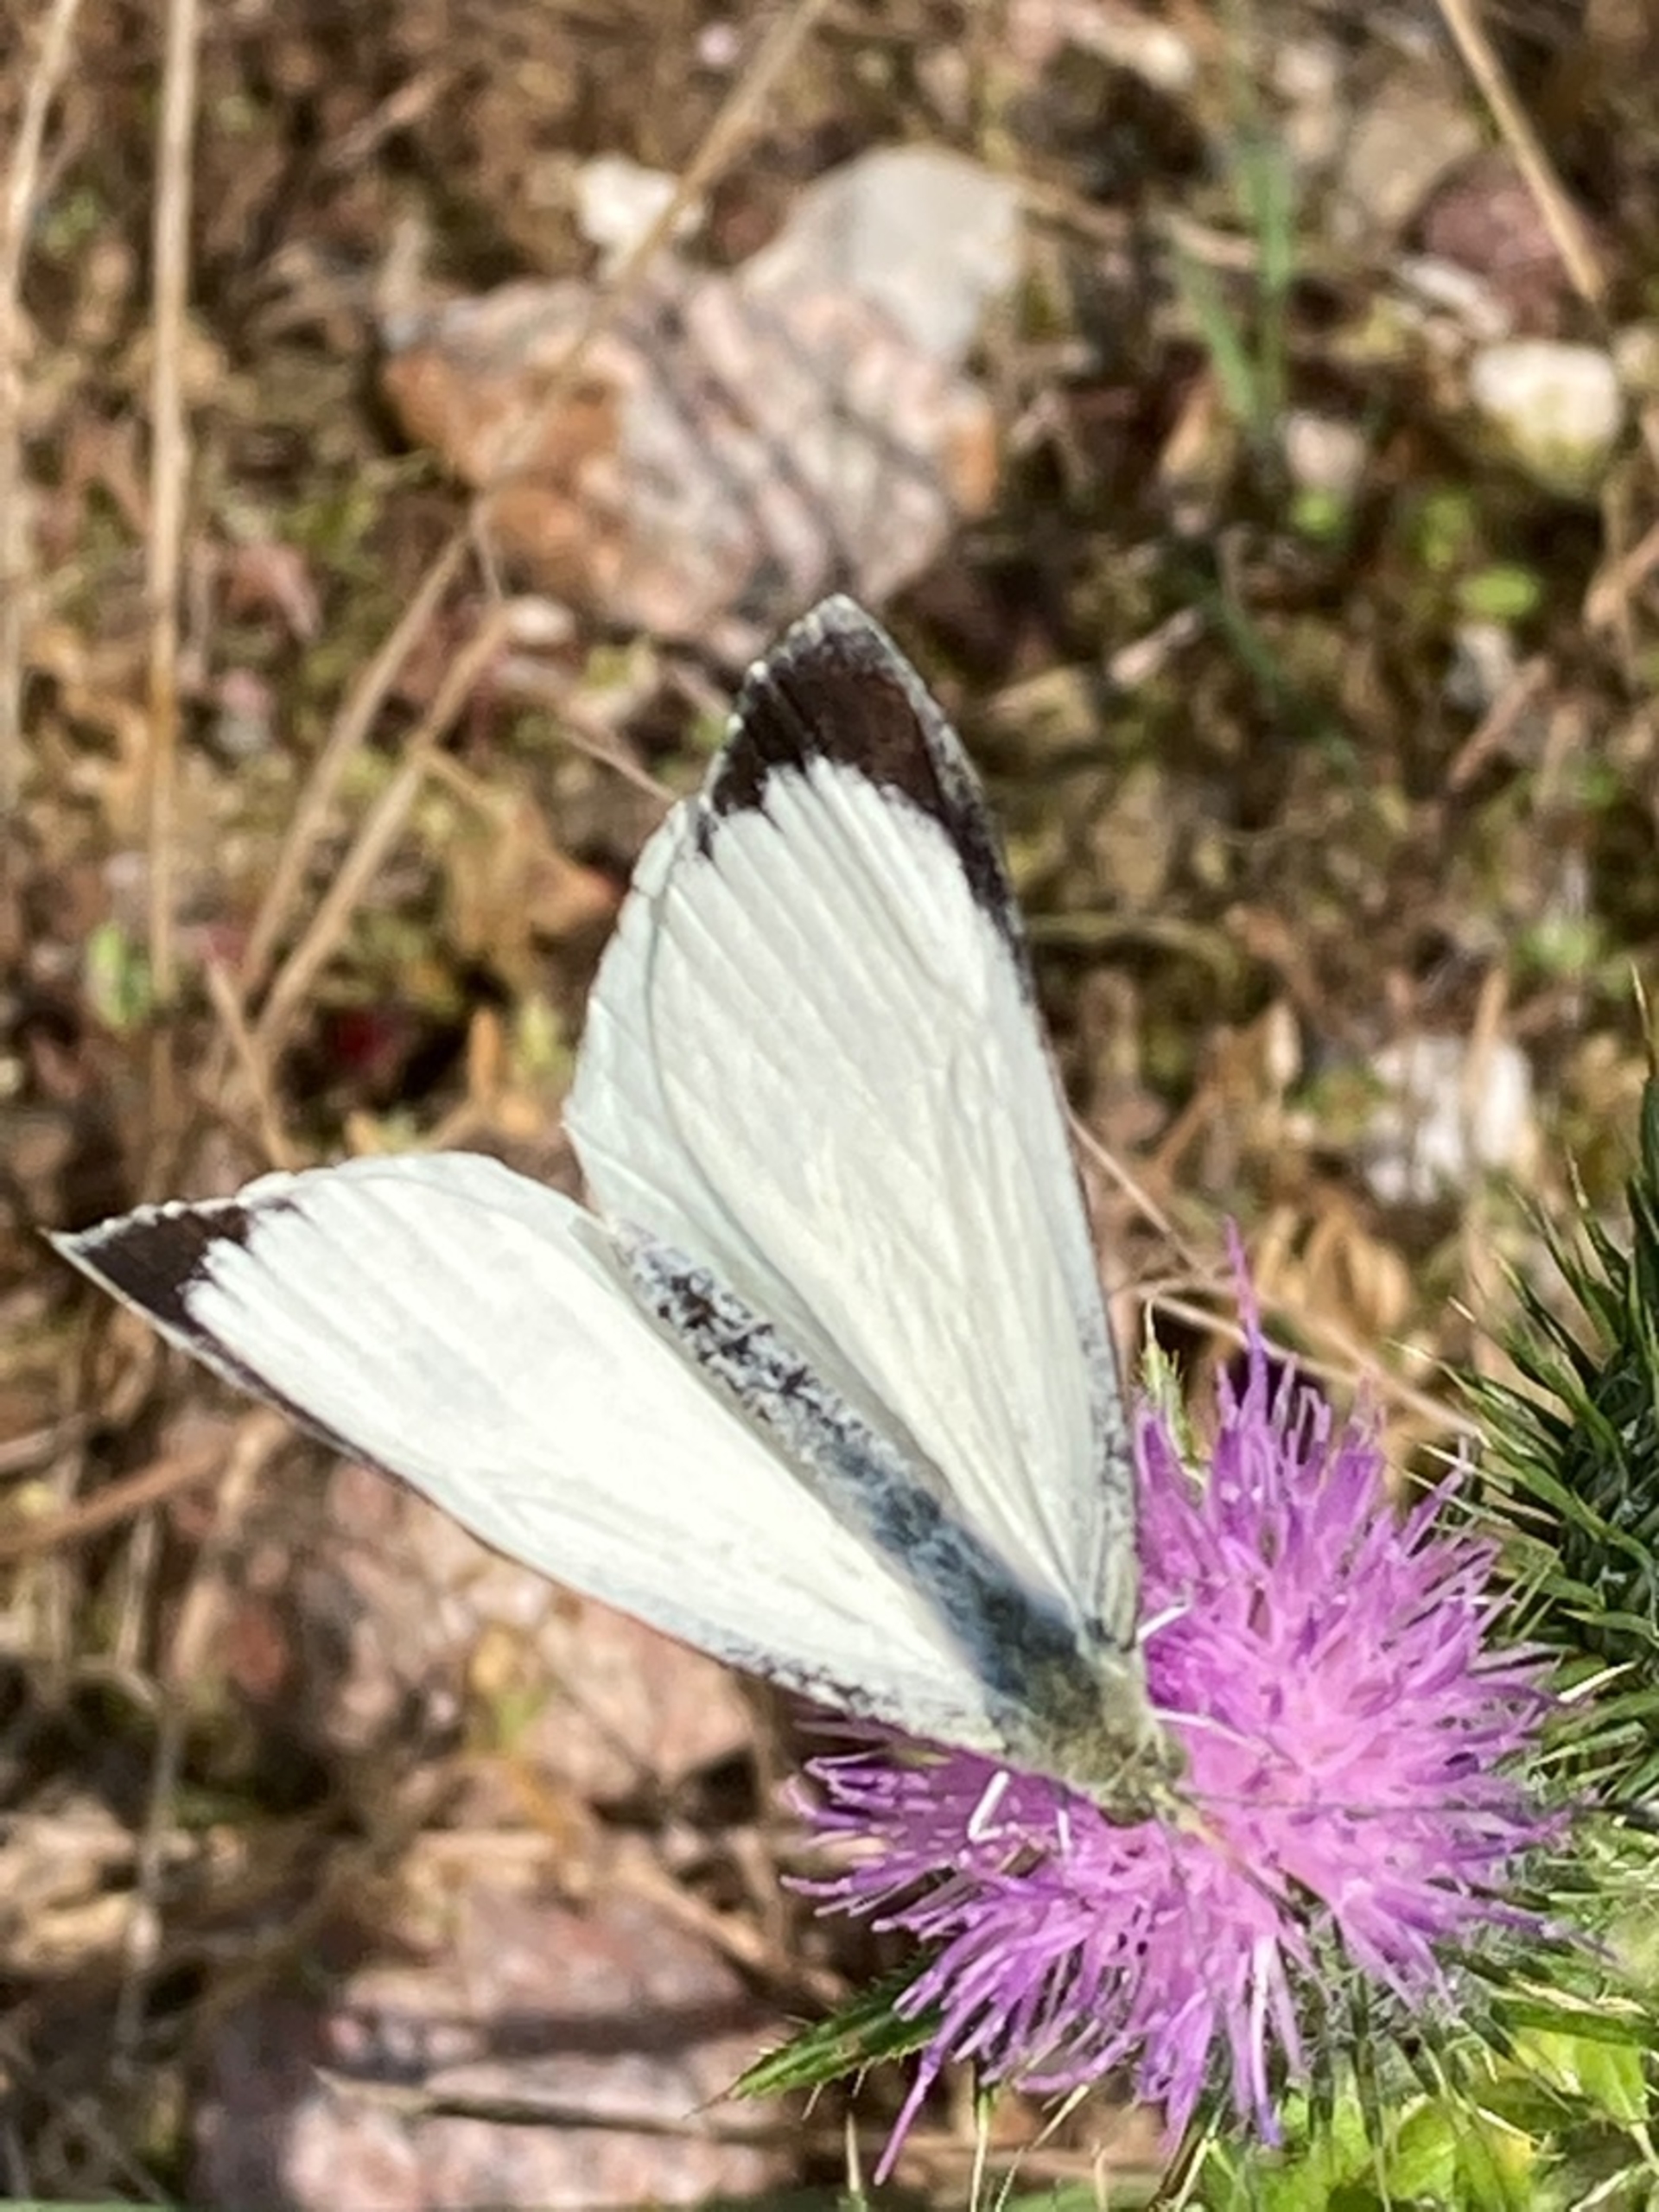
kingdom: Animalia
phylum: Arthropoda
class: Insecta
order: Lepidoptera
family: Pieridae
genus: Pieris
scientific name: Pieris brassicae
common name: Stor kålsommerfugl
